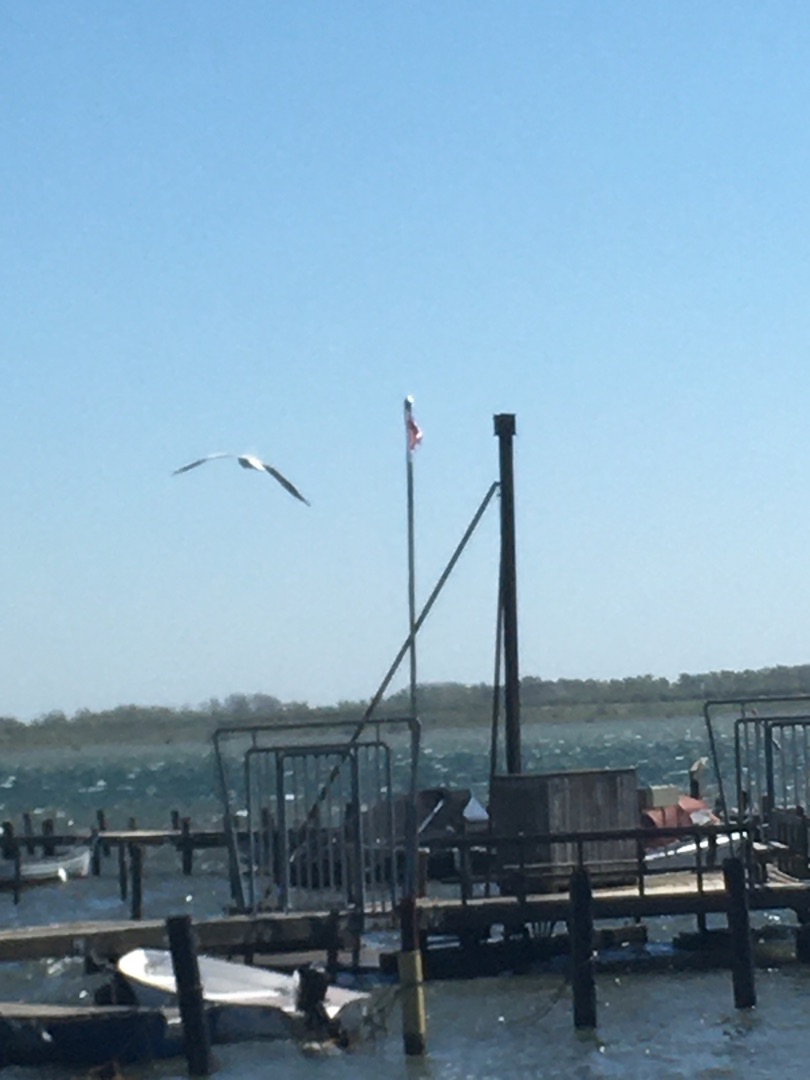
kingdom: Animalia
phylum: Chordata
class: Aves
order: Charadriiformes
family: Laridae
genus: Chroicocephalus
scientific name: Chroicocephalus ridibundus
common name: Hættemåge
